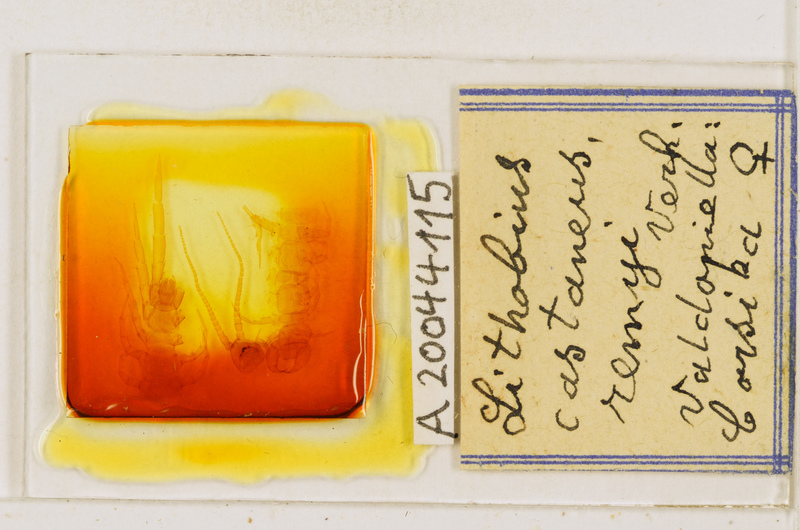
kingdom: Animalia
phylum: Arthropoda
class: Chilopoda
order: Lithobiomorpha
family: Lithobiidae
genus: Lithobius
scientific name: Lithobius castaneus
